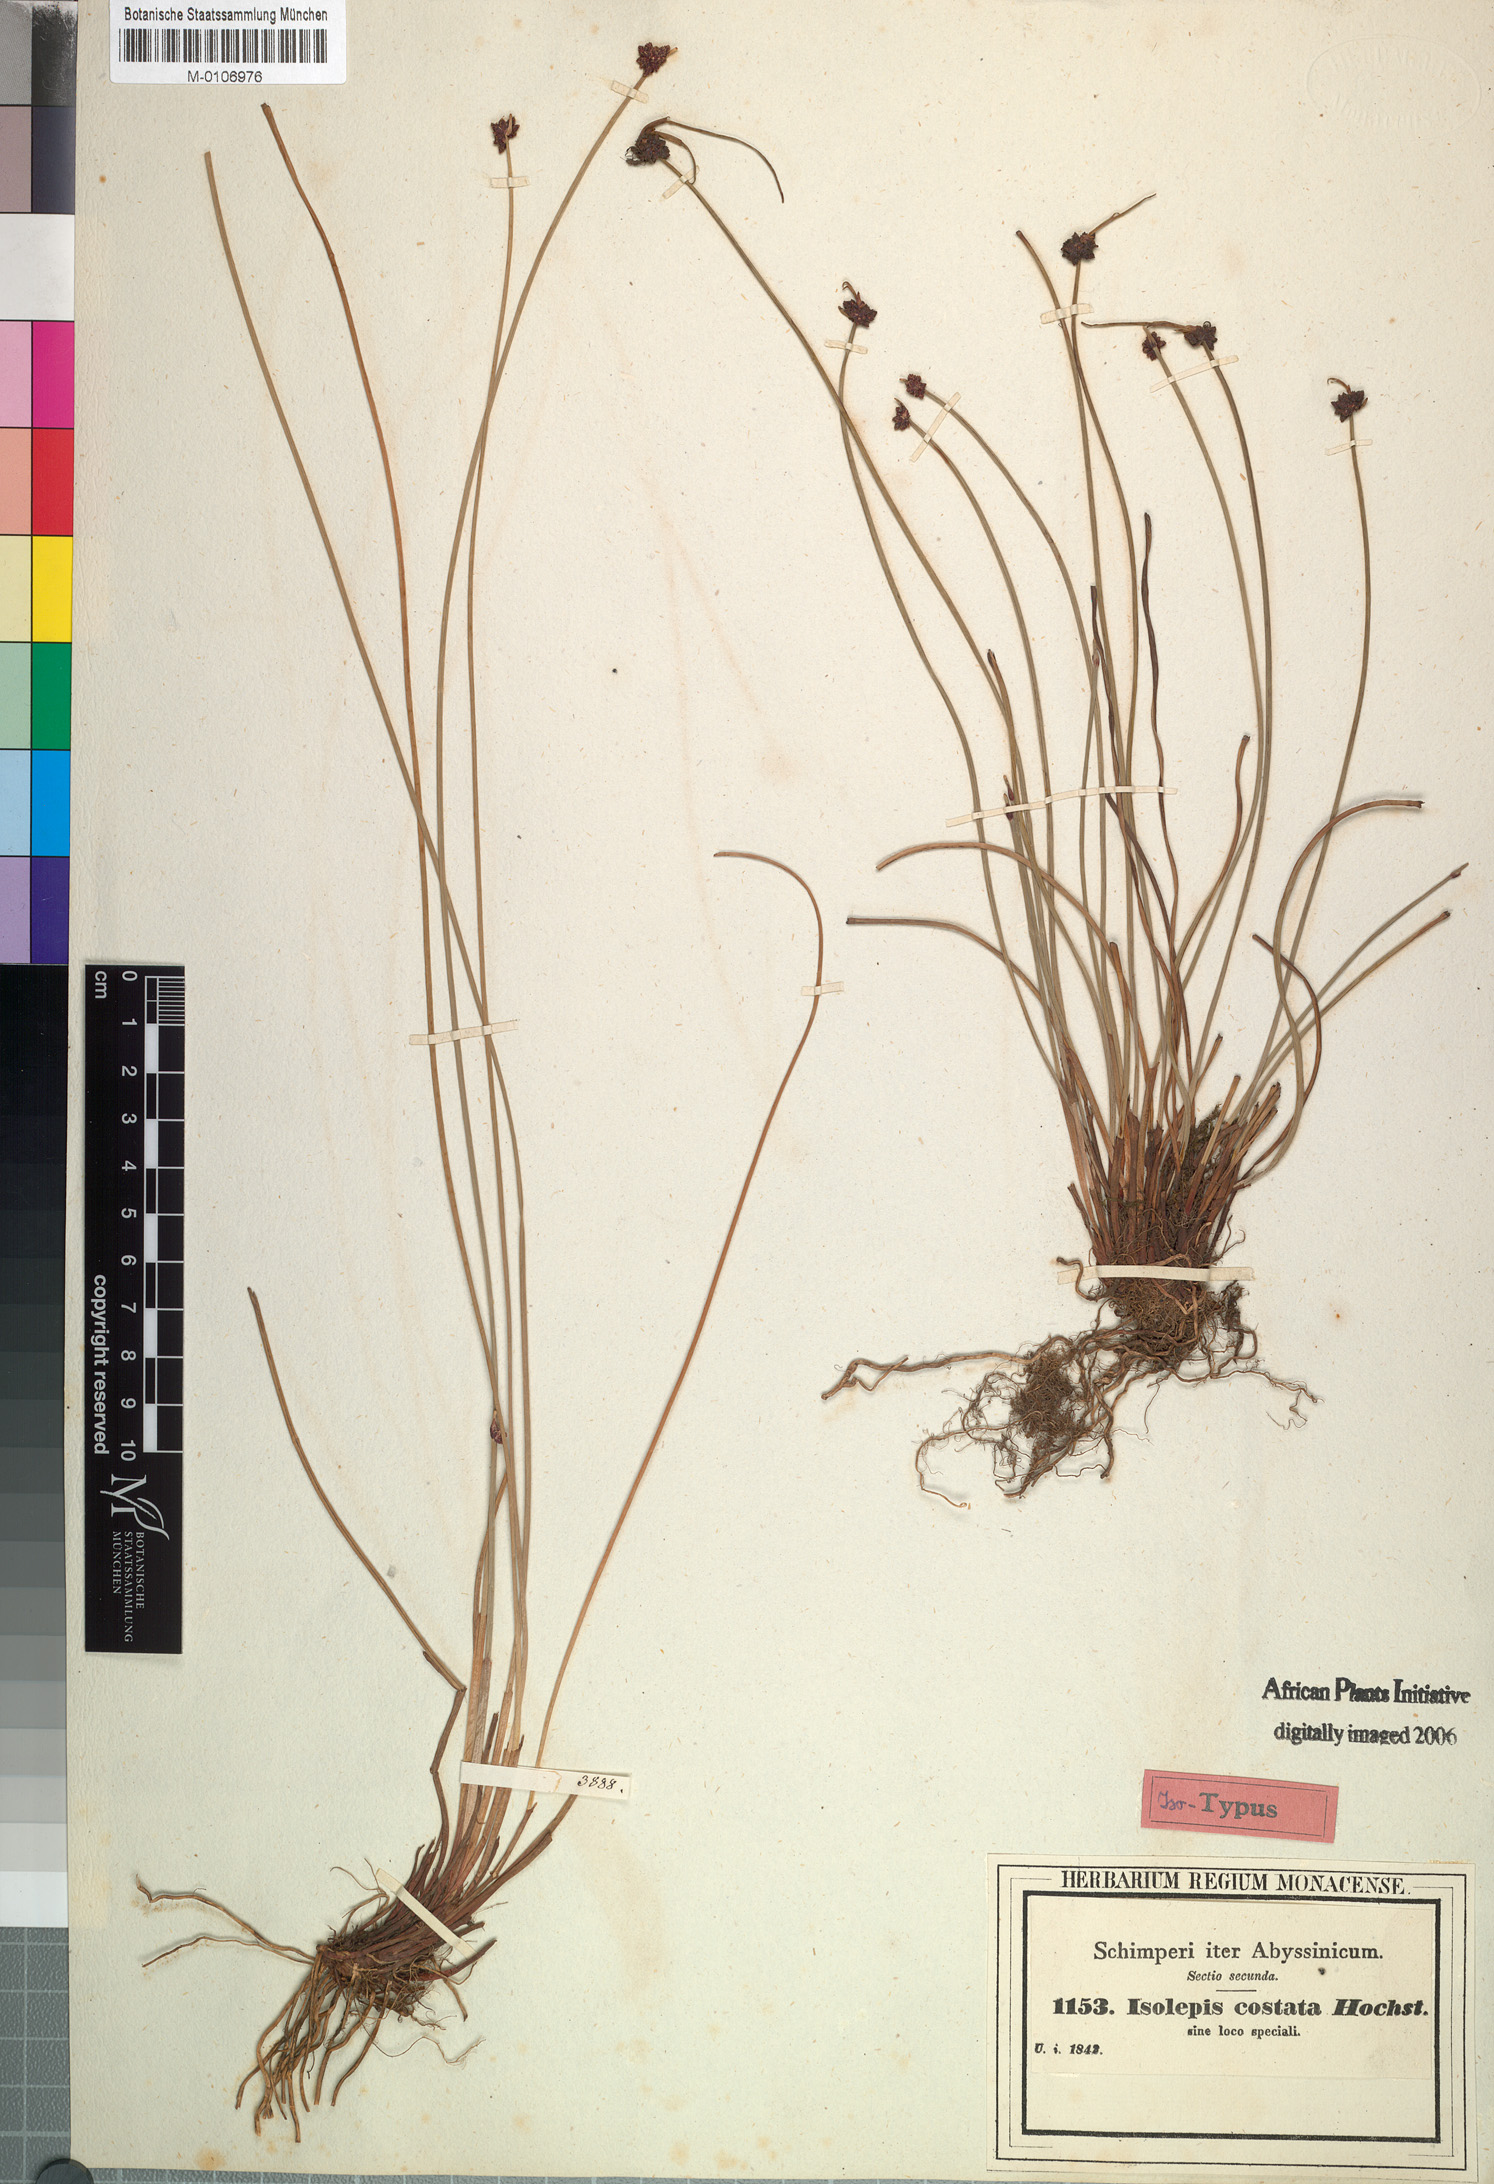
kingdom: Plantae
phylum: Tracheophyta
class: Liliopsida
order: Poales
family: Cyperaceae
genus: Isolepis
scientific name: Isolepis costata
